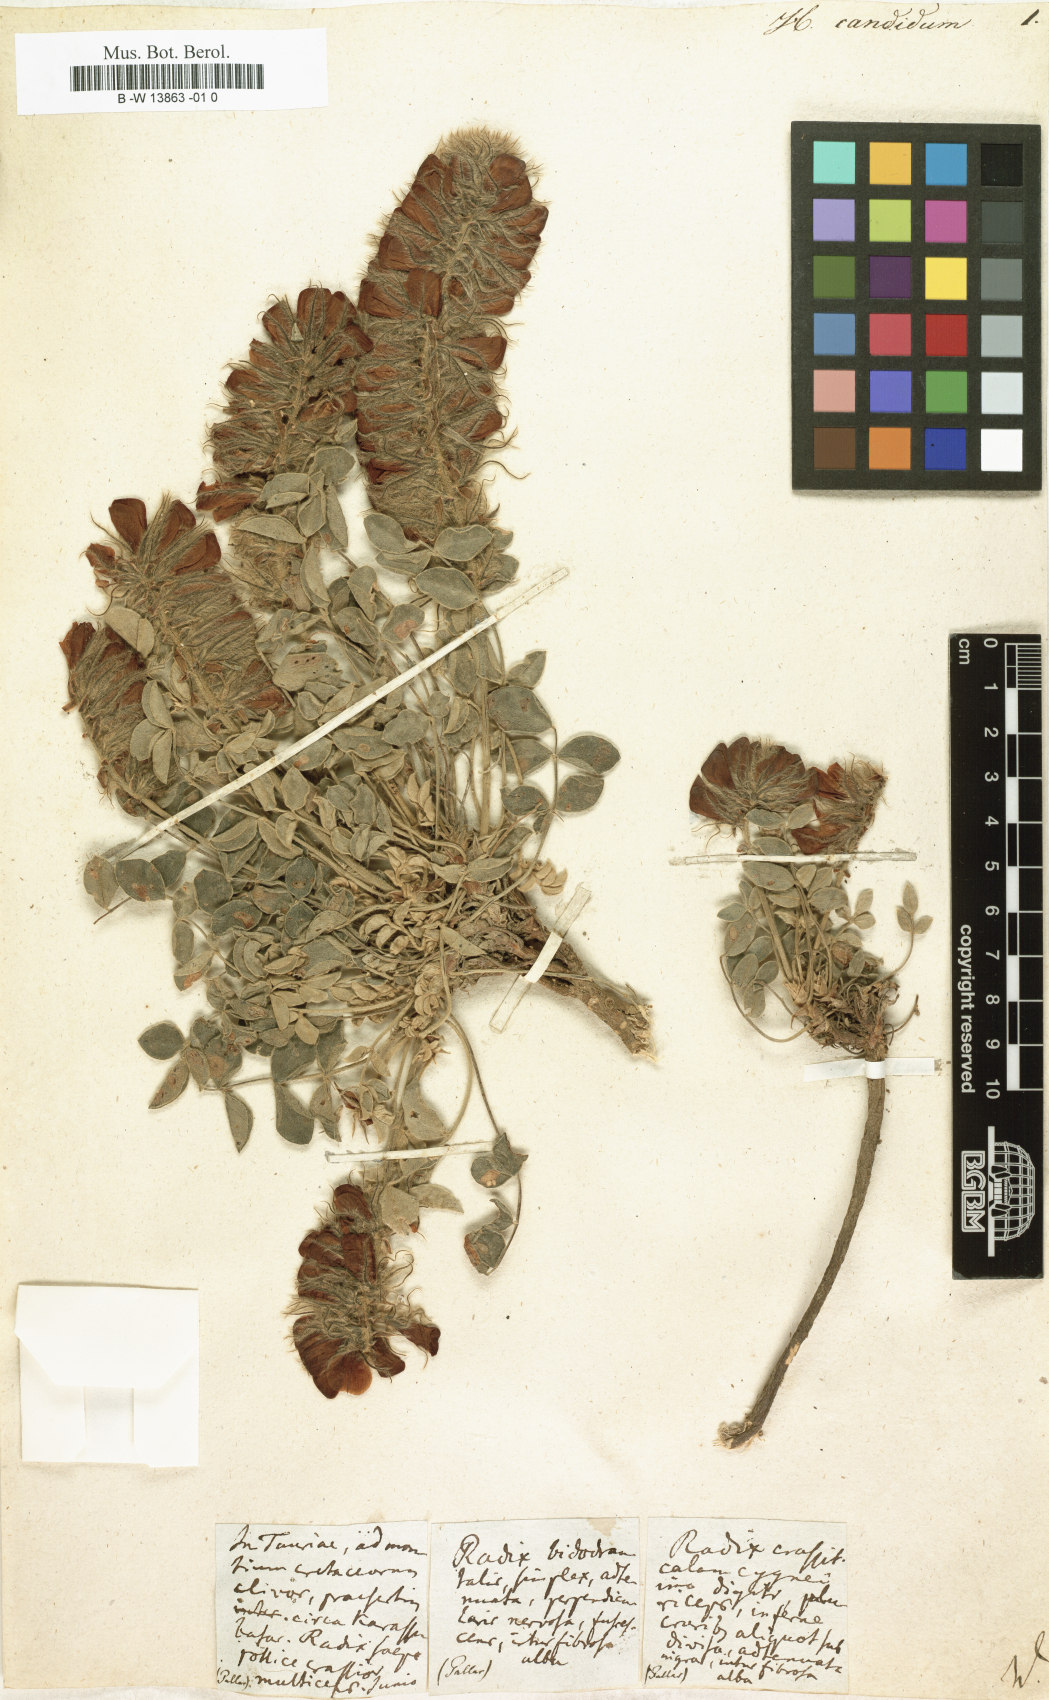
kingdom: Plantae
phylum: Tracheophyta
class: Magnoliopsida
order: Fabales
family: Fabaceae
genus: Hedysarum
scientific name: Hedysarum candidum
